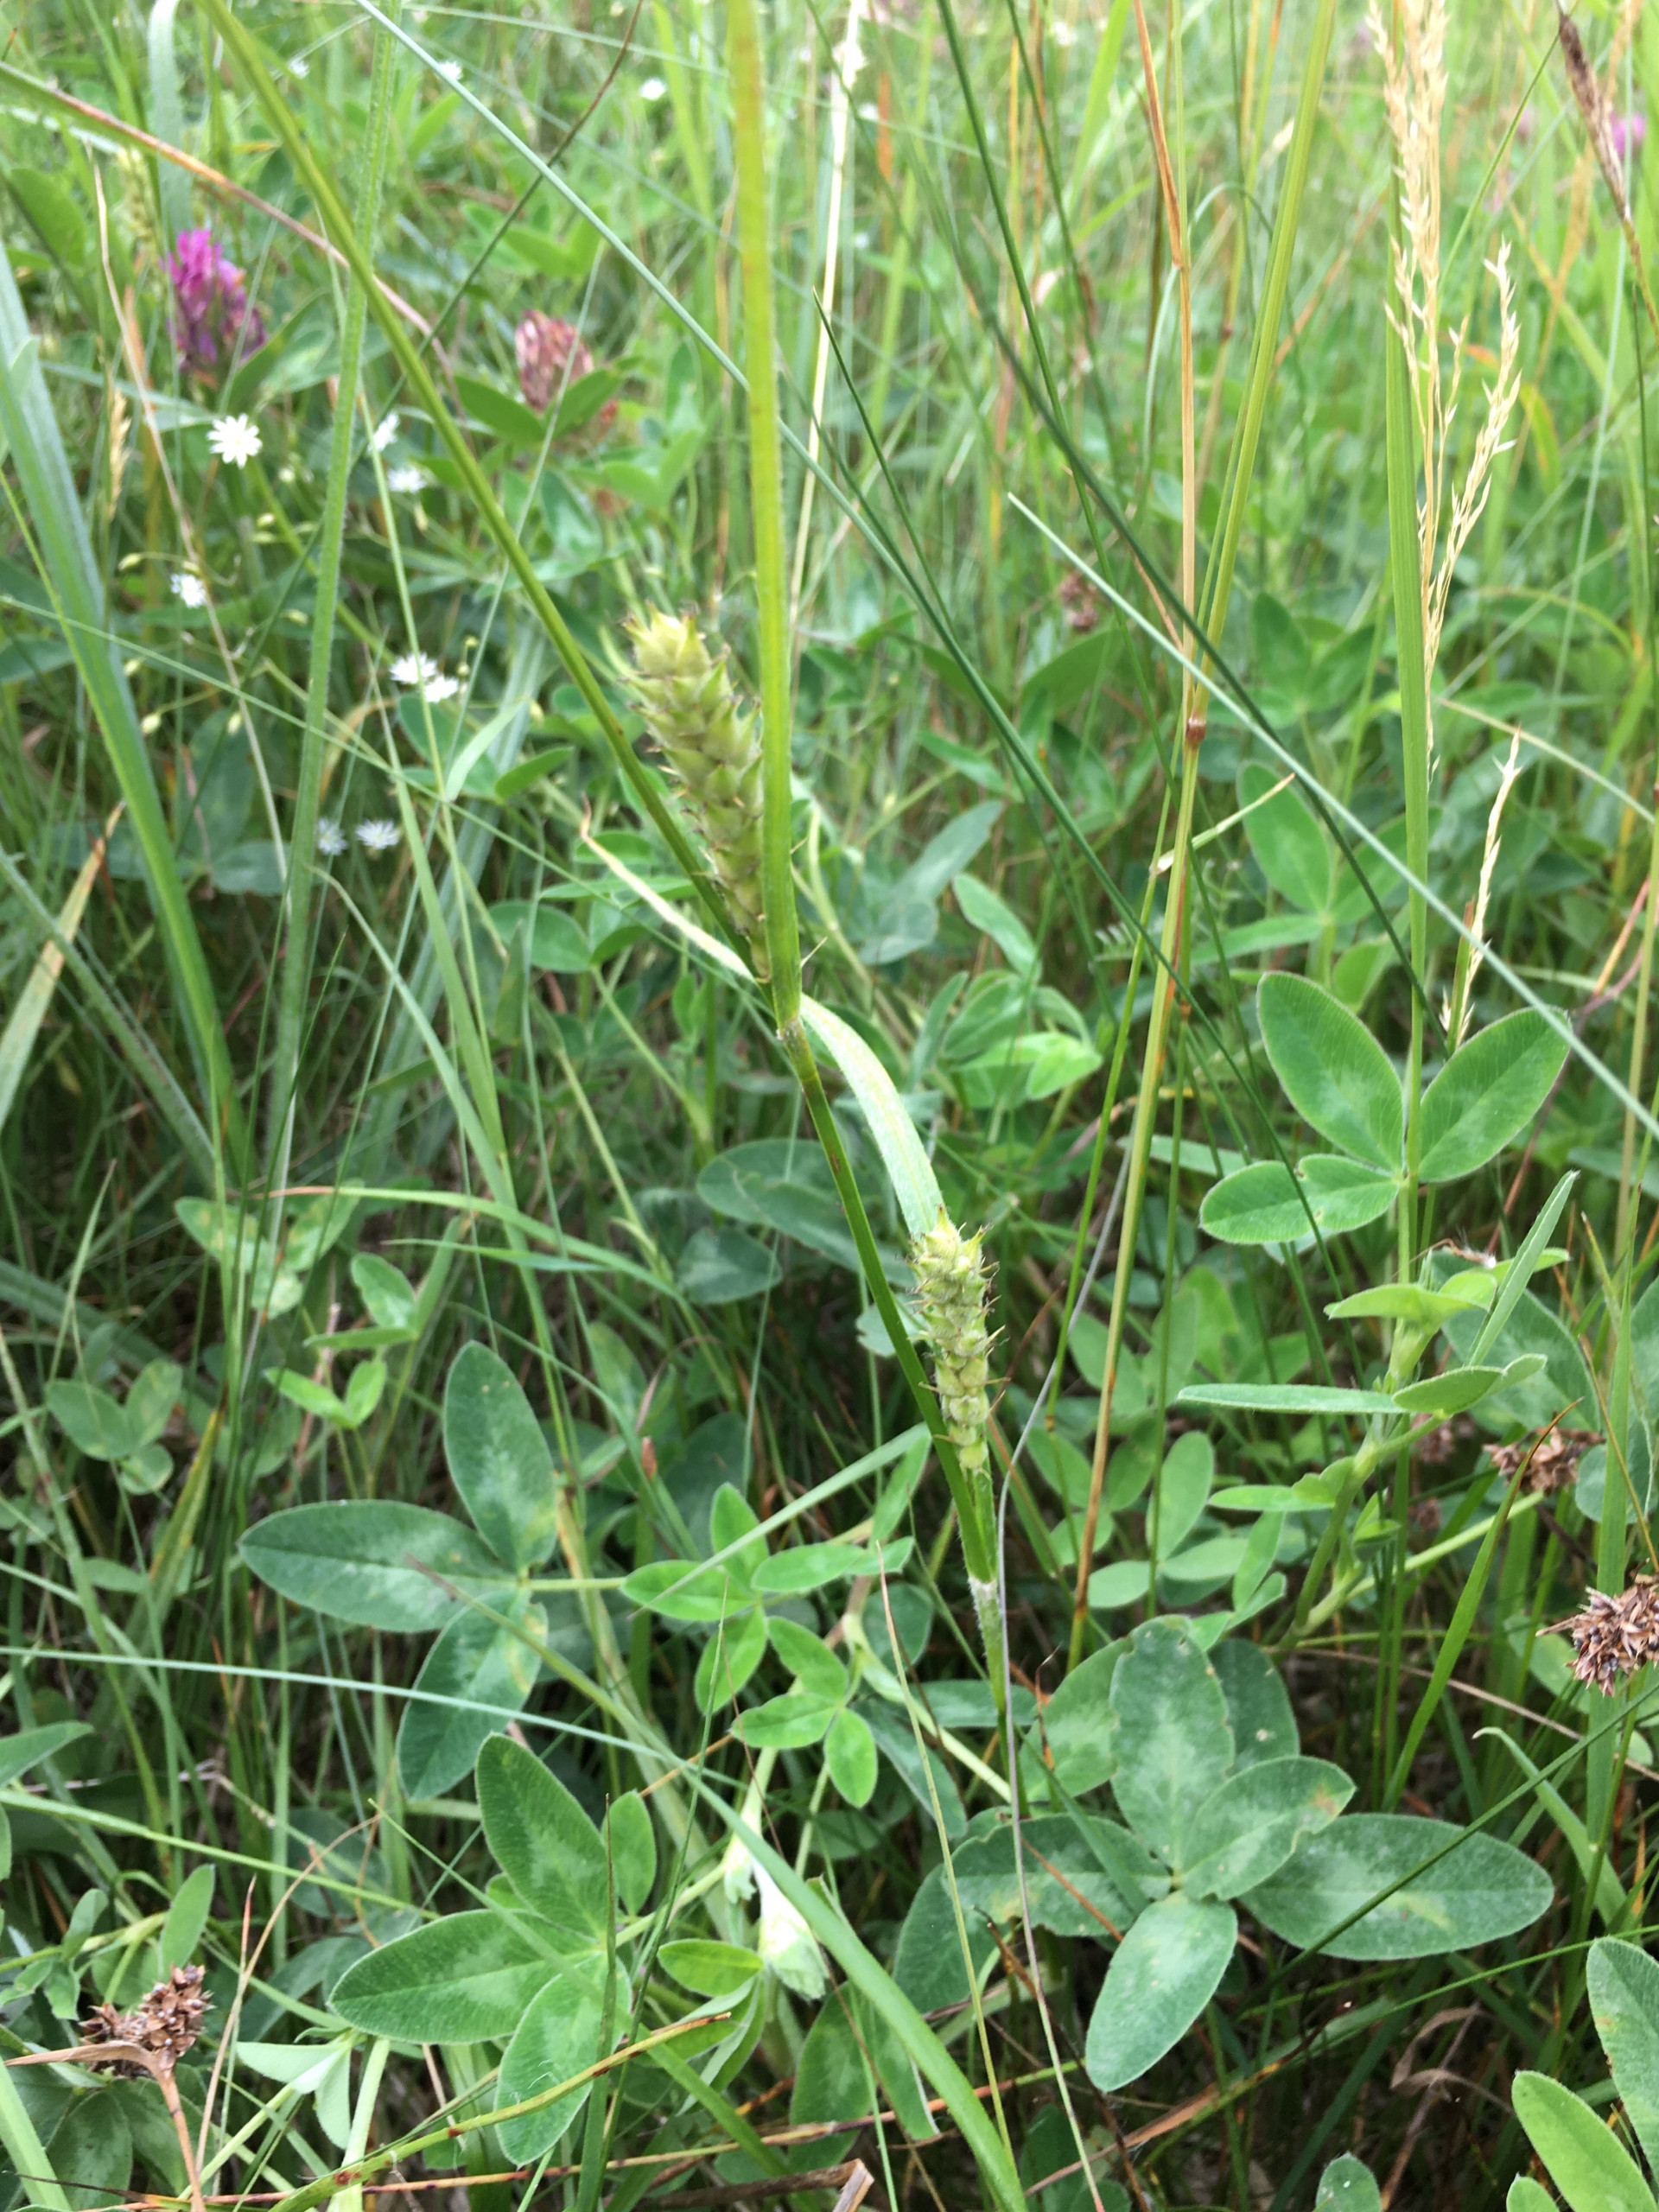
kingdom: Plantae
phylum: Tracheophyta
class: Liliopsida
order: Poales
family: Cyperaceae
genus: Carex
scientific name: Carex hirta
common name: Håret star
